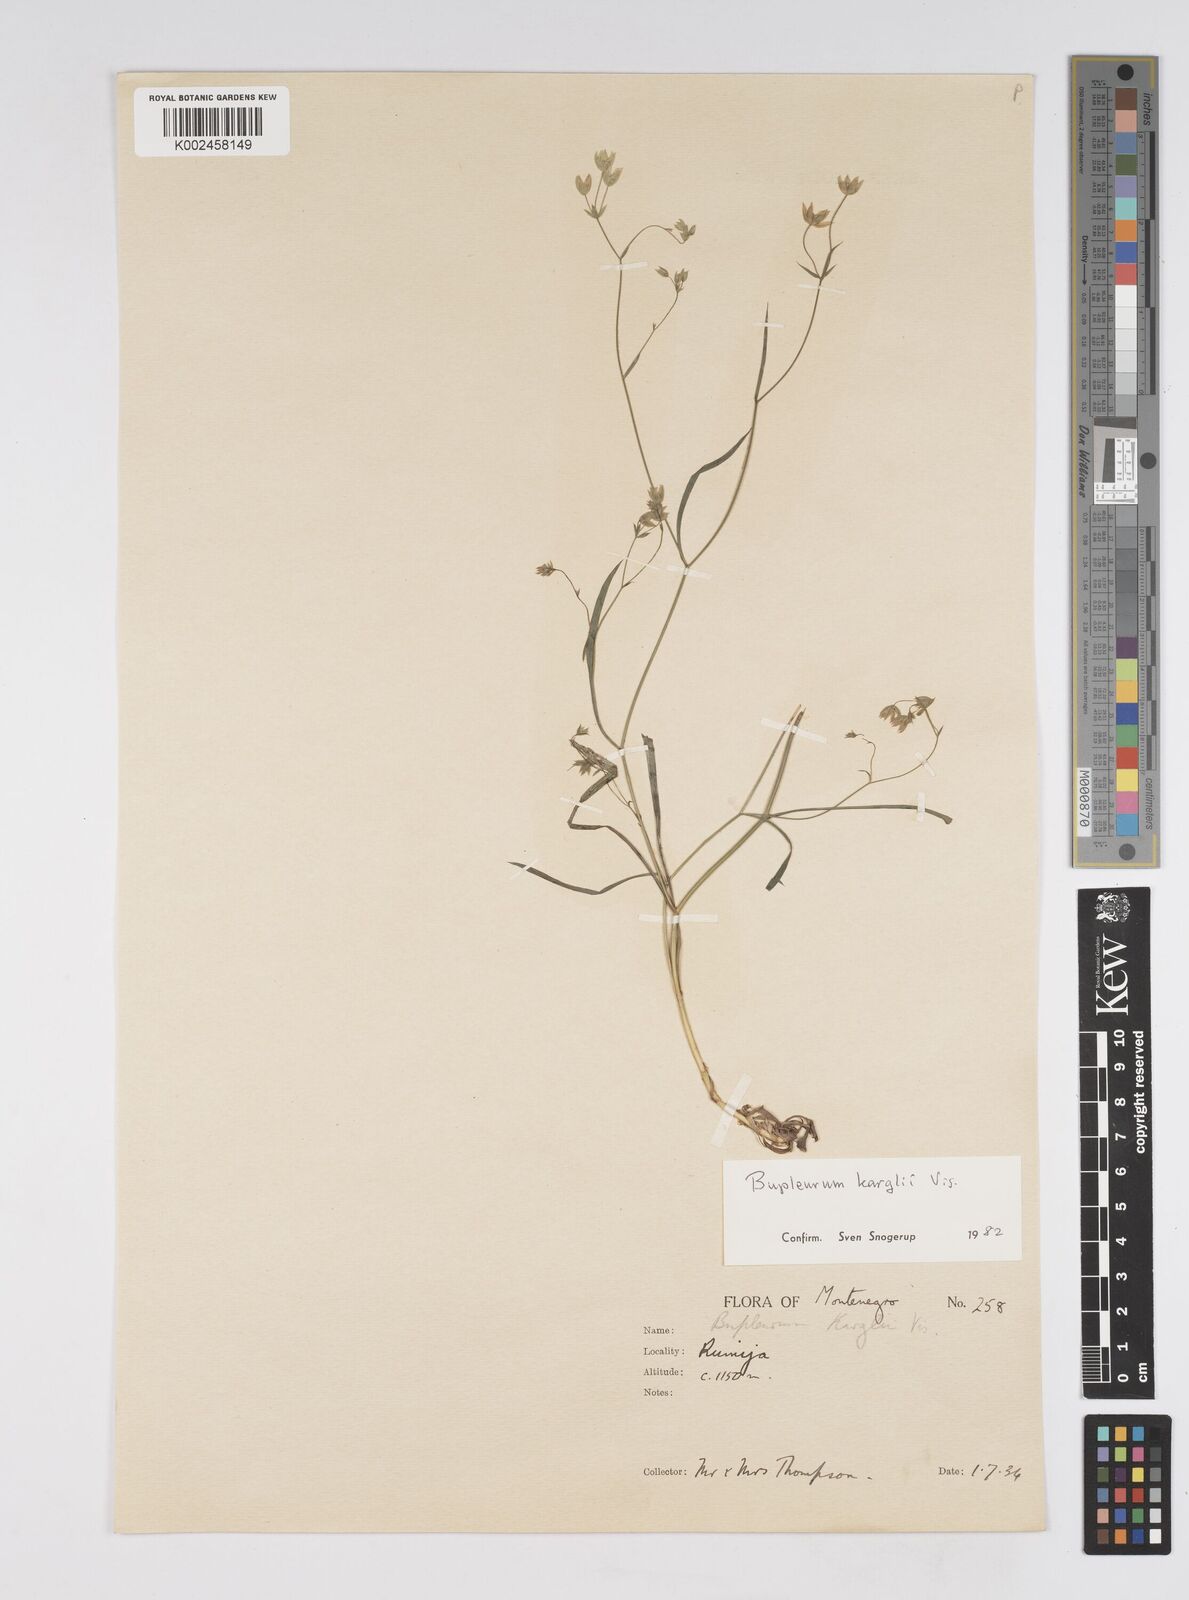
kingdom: Plantae
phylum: Tracheophyta
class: Magnoliopsida
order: Apiales
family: Apiaceae
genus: Bupleurum
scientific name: Bupleurum karglii
